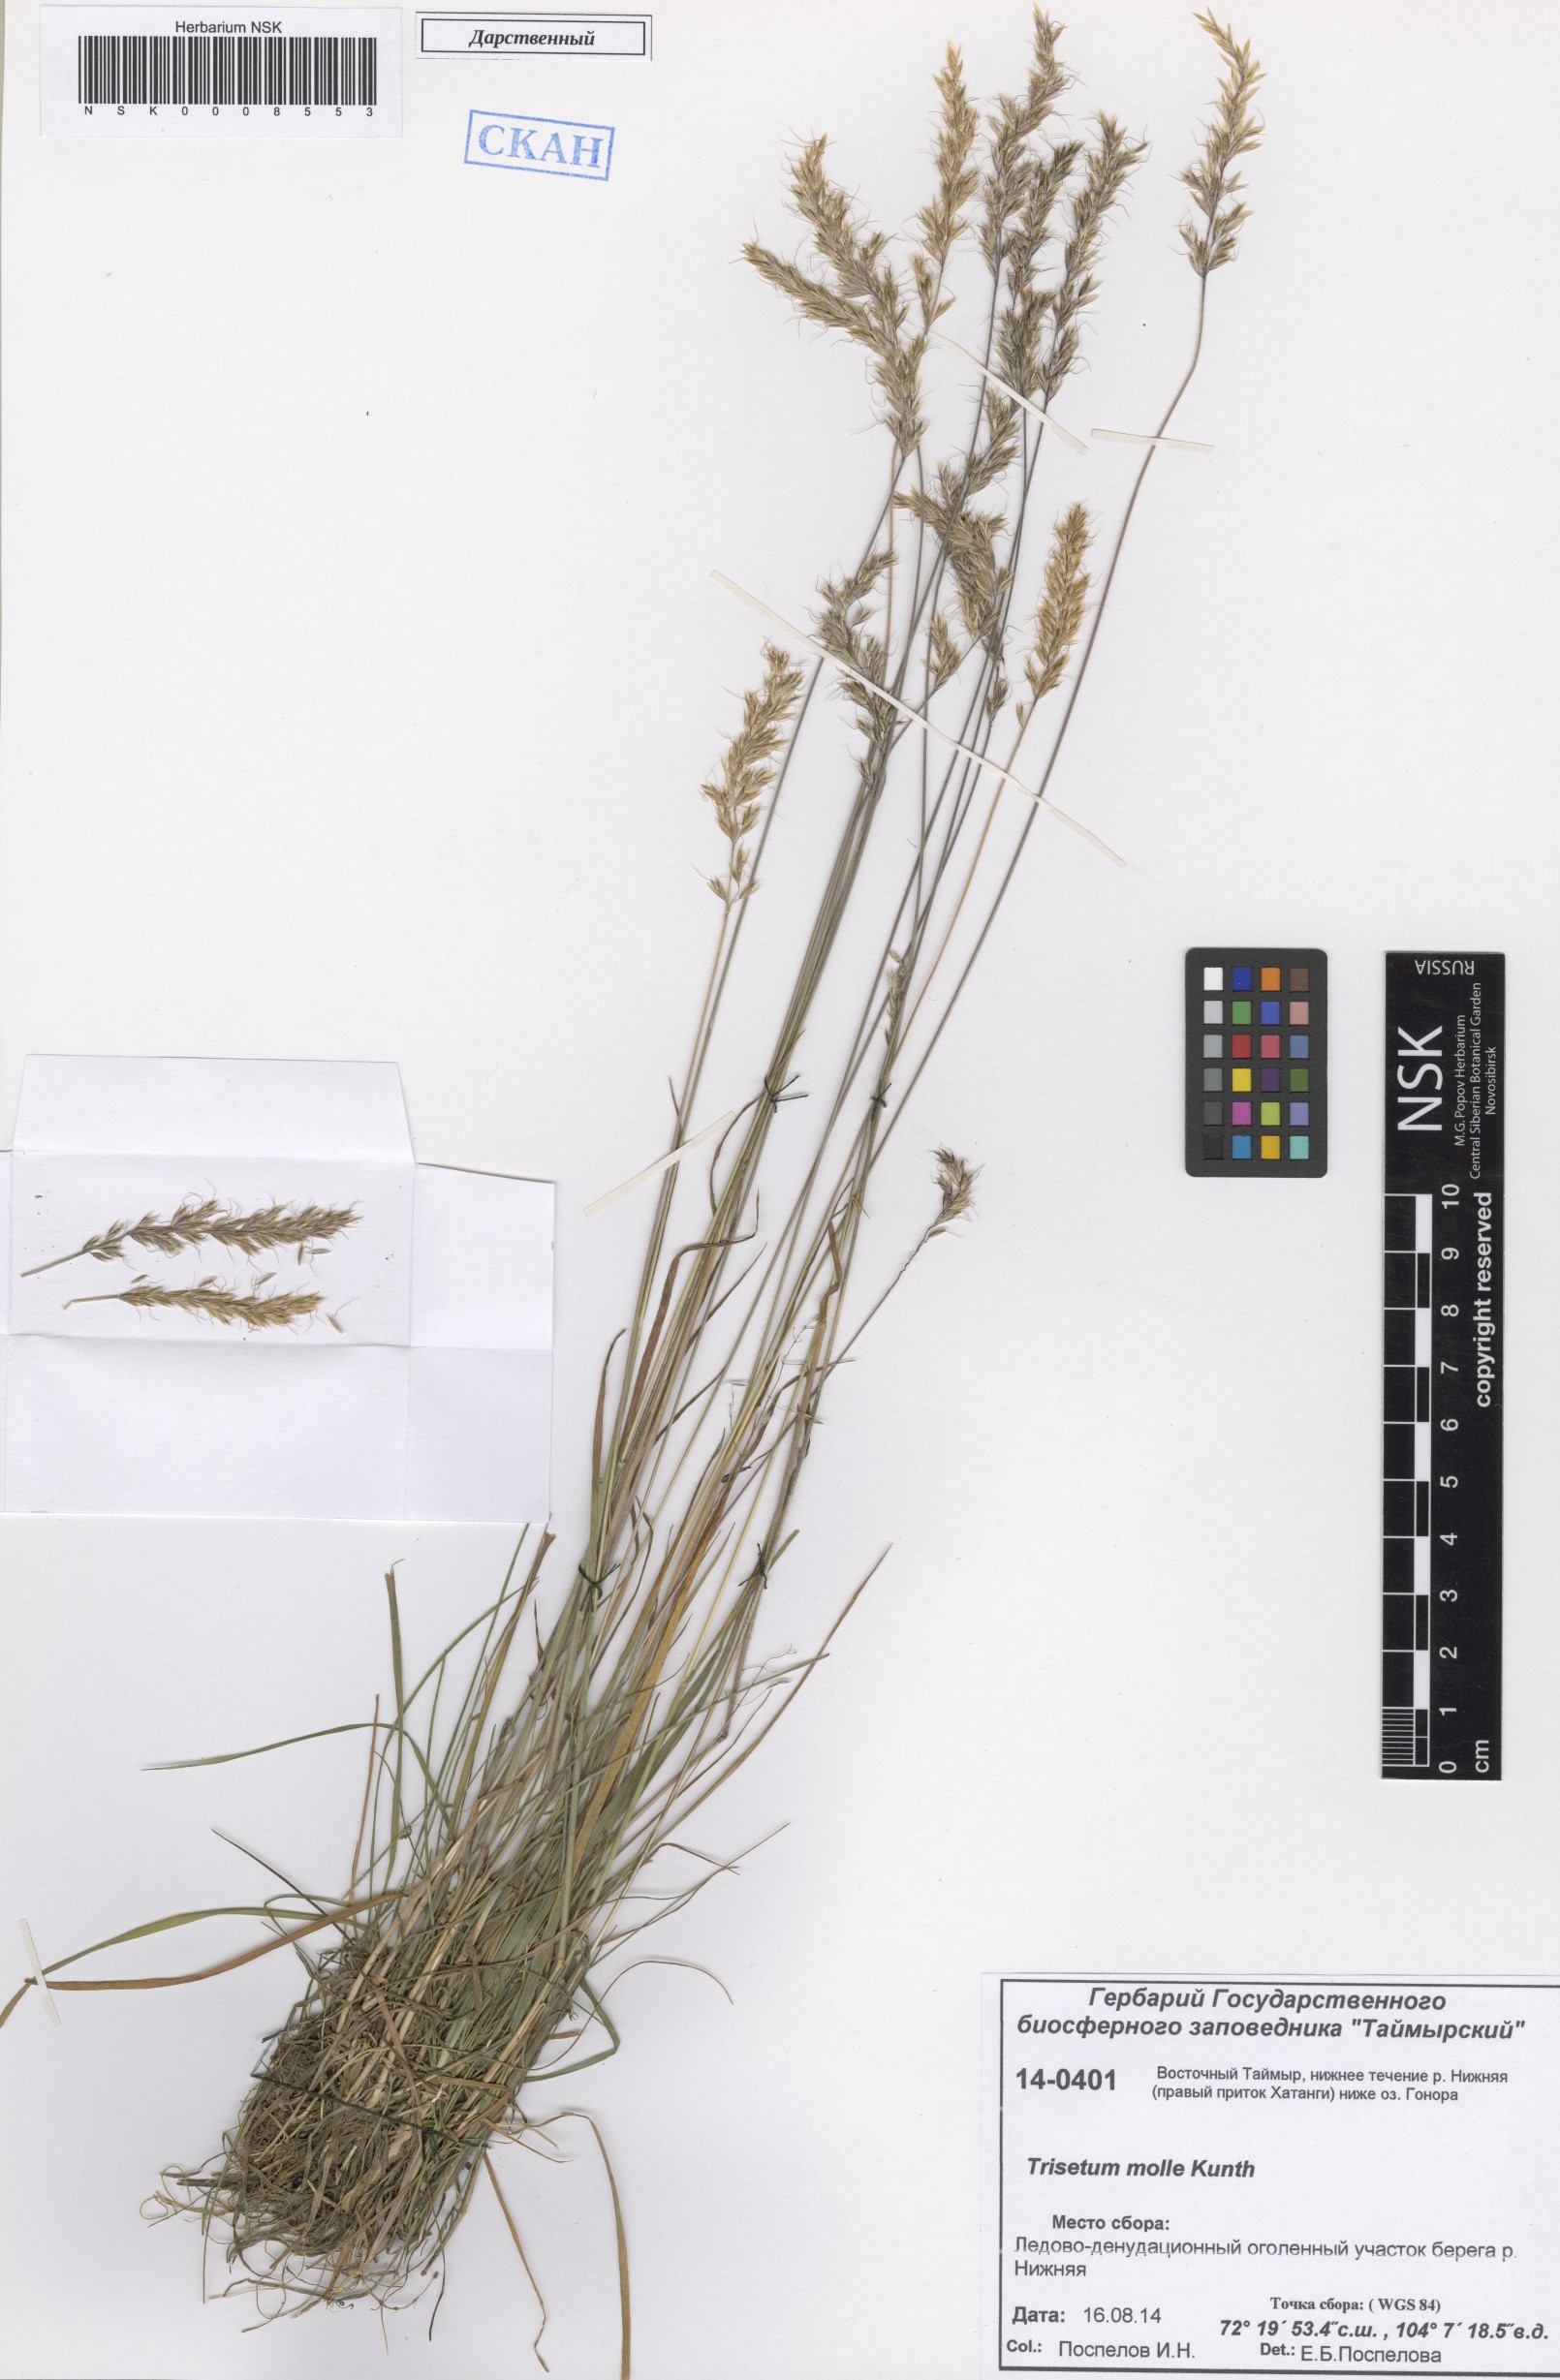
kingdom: Plantae
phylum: Tracheophyta
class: Liliopsida
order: Poales
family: Poaceae
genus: Koeleria
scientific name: Koeleria spicata
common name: Mountain trisetum
